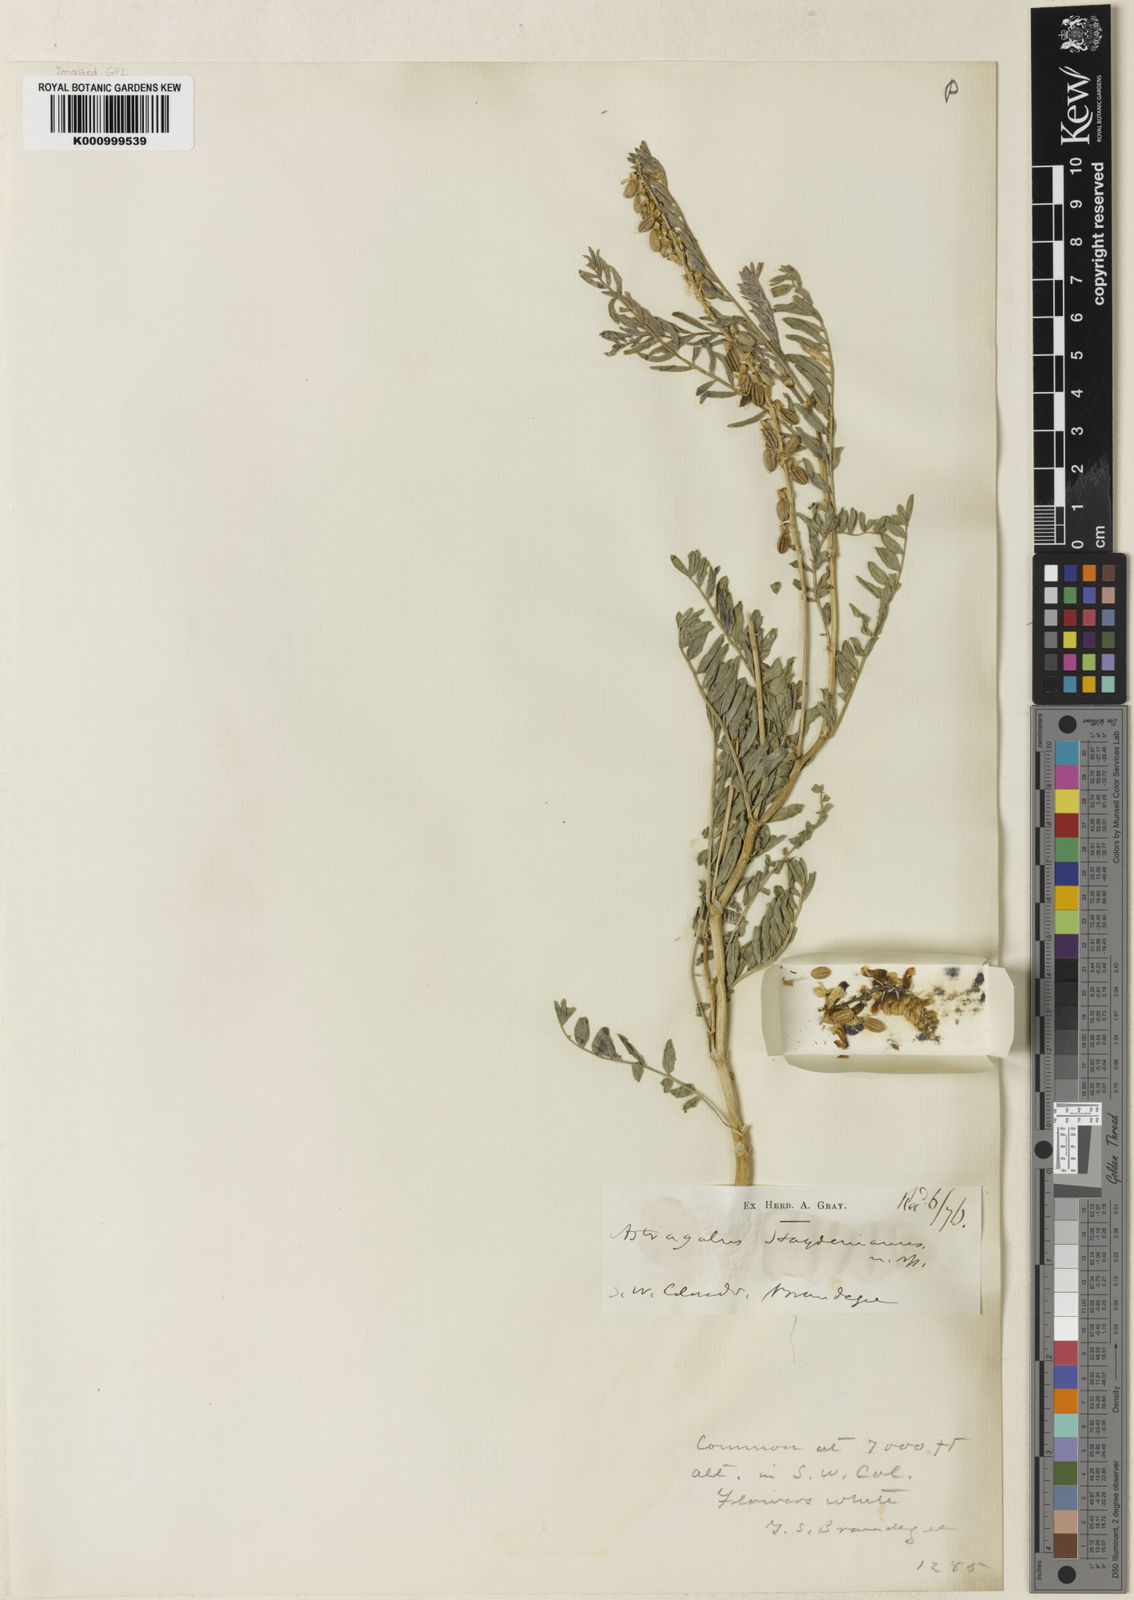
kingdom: Plantae
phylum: Tracheophyta
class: Magnoliopsida
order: Fabales
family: Fabaceae
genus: Astragalus
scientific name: Astragalus
